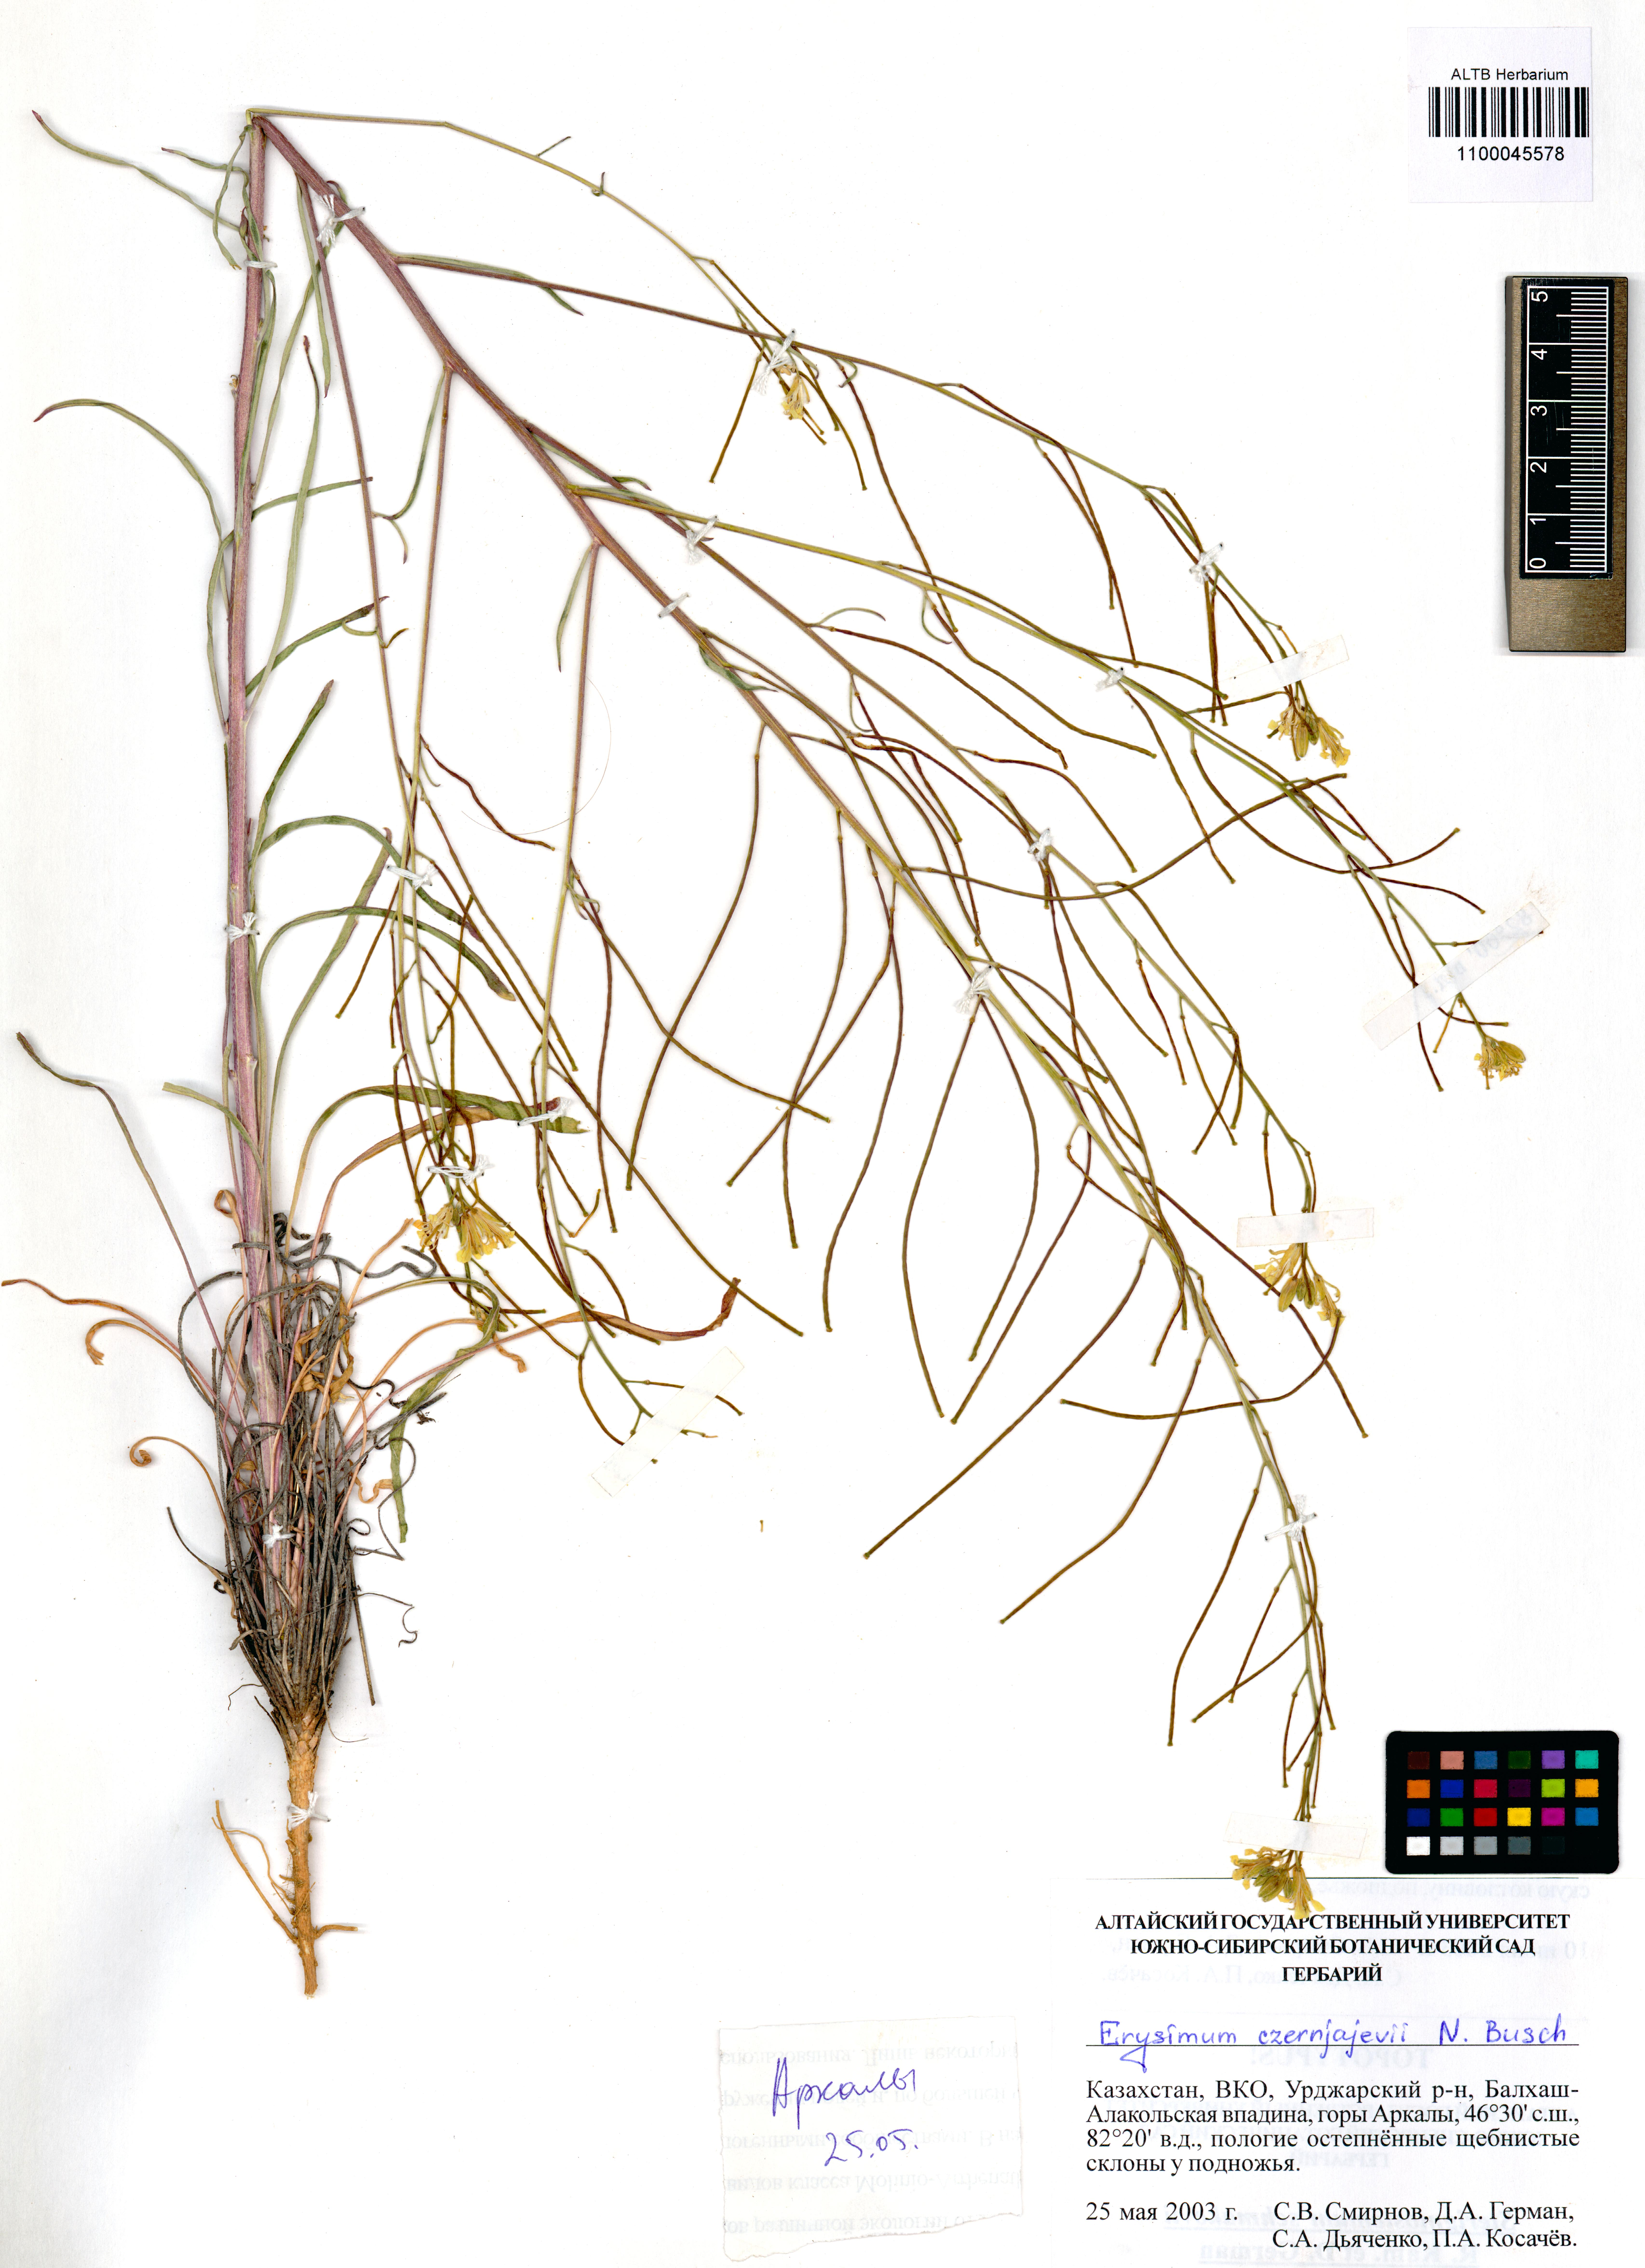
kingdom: Plantae
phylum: Tracheophyta
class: Magnoliopsida
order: Brassicales
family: Brassicaceae
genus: Erysimum
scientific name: Erysimum czernjajevii
